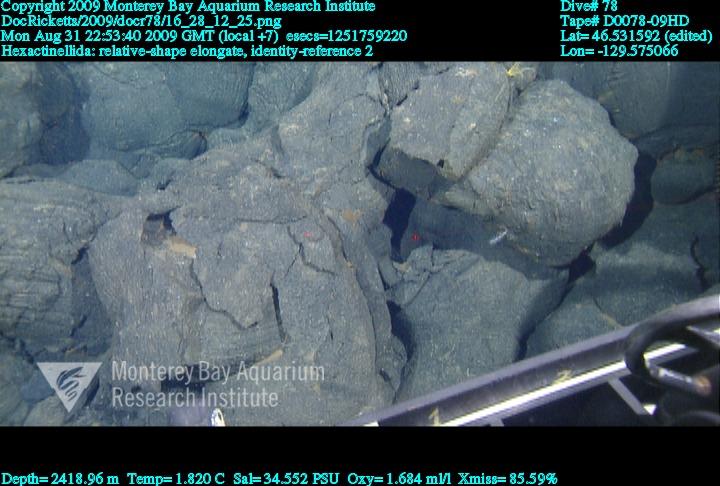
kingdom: Animalia
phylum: Porifera
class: Hexactinellida
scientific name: Hexactinellida
